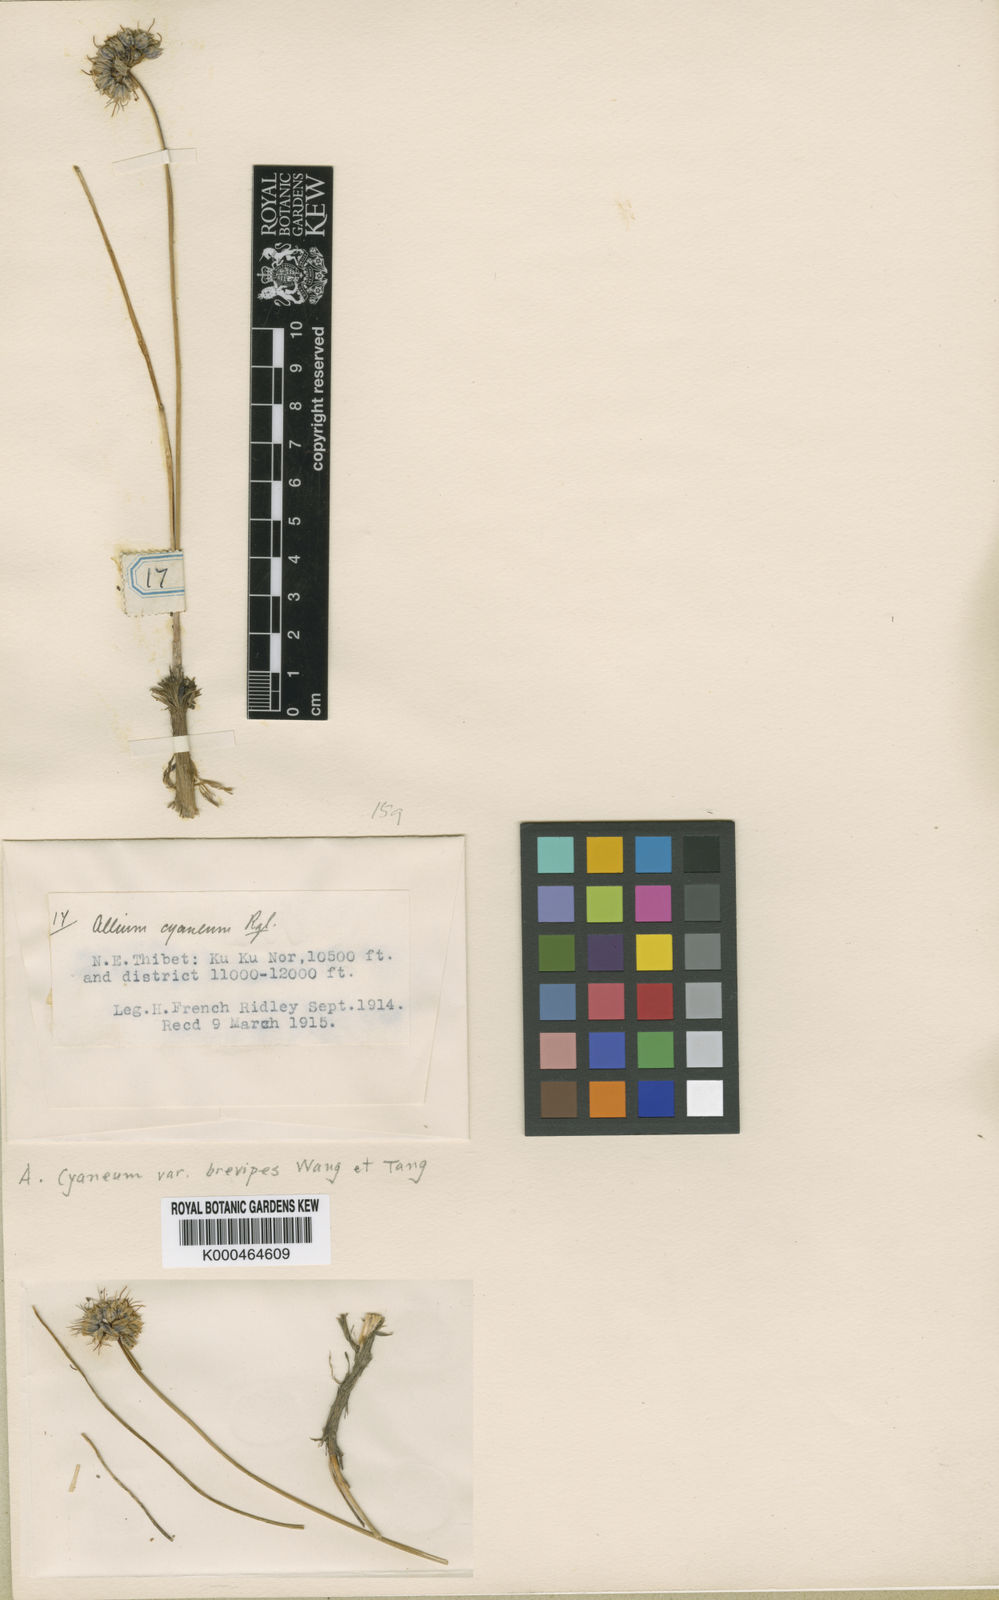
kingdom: Plantae
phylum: Tracheophyta
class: Liliopsida
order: Asparagales
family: Amaryllidaceae
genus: Allium
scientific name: Allium cyaneum
